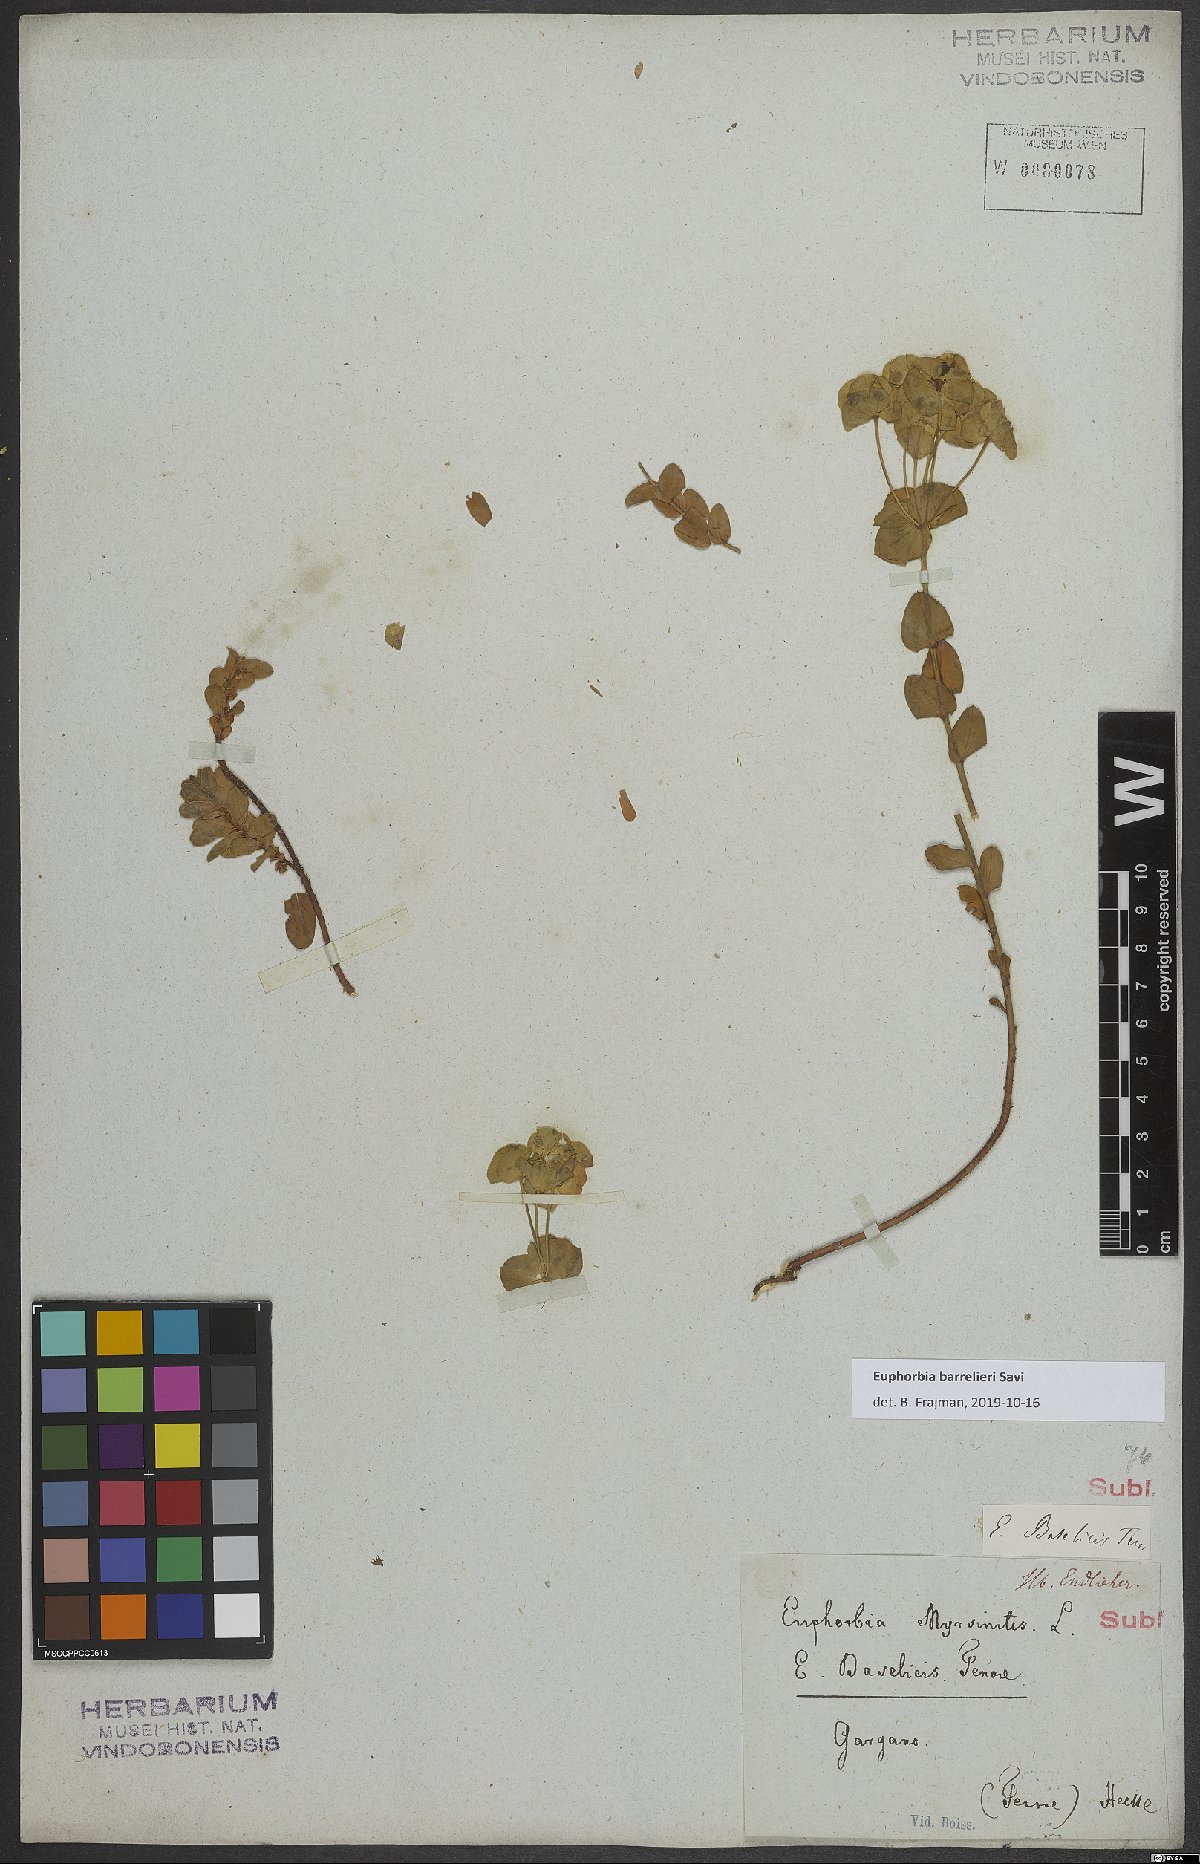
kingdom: Plantae
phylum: Tracheophyta
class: Magnoliopsida
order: Malpighiales
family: Euphorbiaceae
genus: Euphorbia
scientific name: Euphorbia barrelieri
